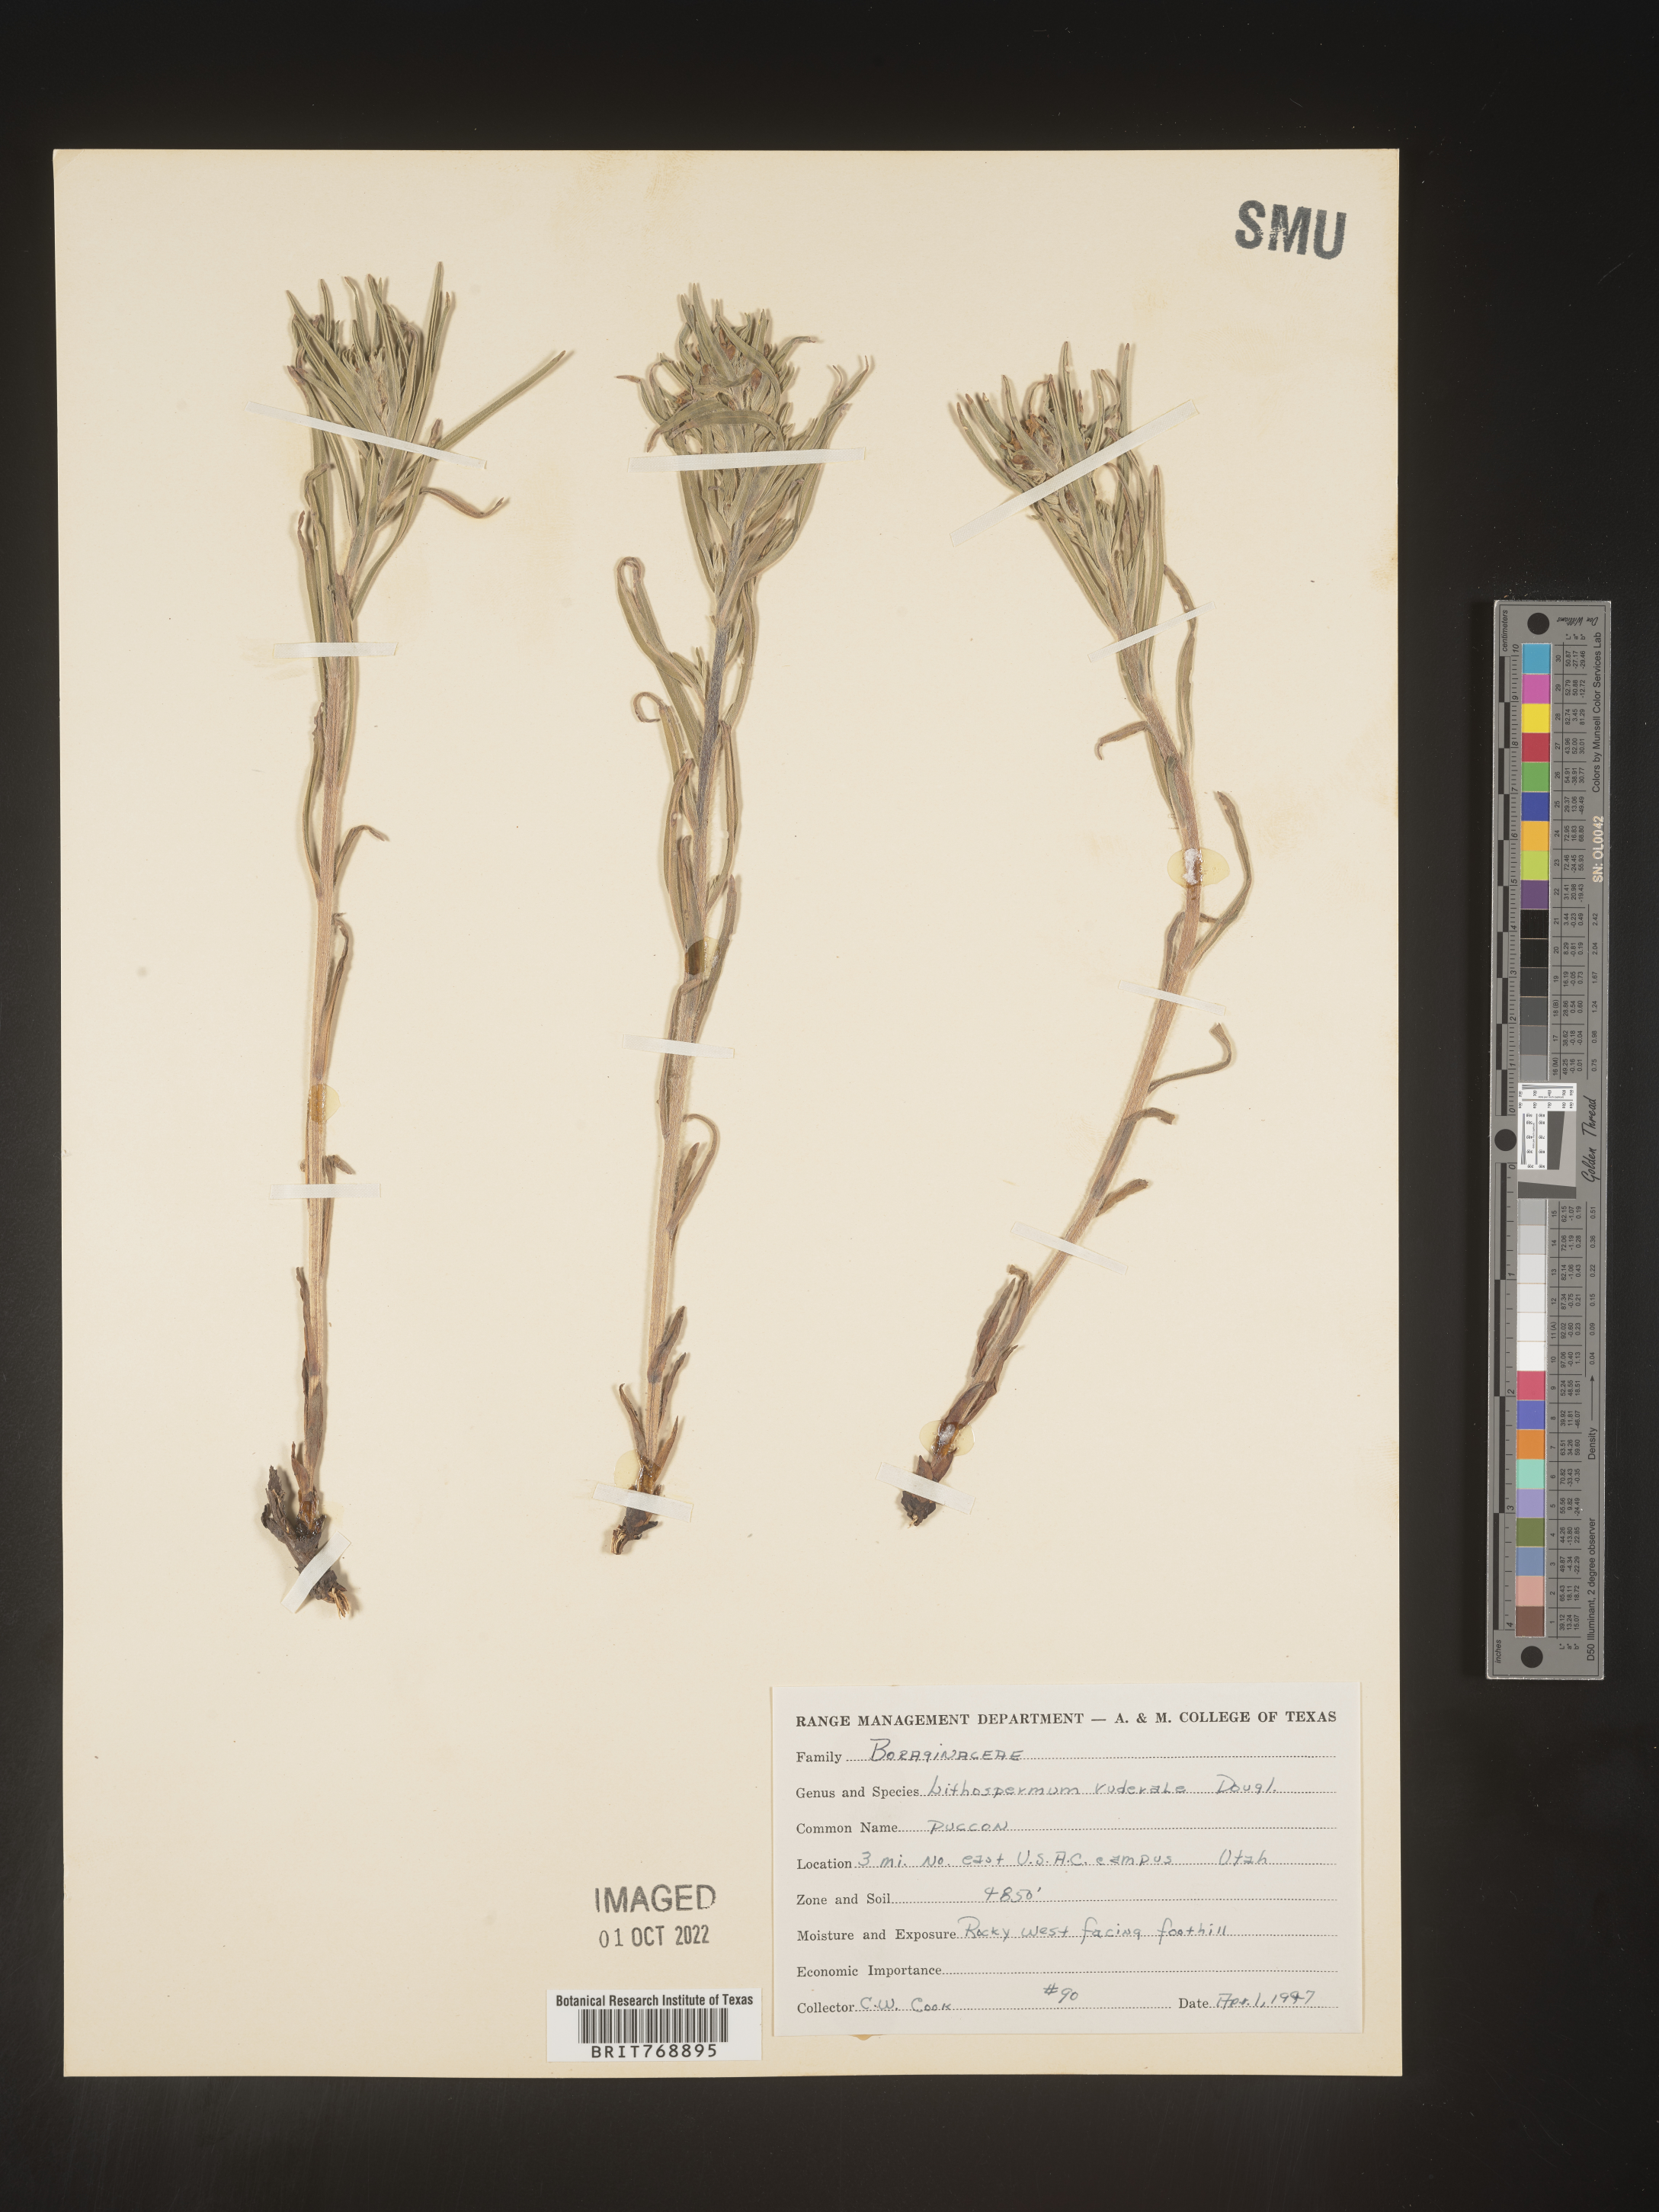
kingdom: Plantae
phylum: Tracheophyta
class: Magnoliopsida
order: Boraginales
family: Boraginaceae
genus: Lithospermum
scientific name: Lithospermum
